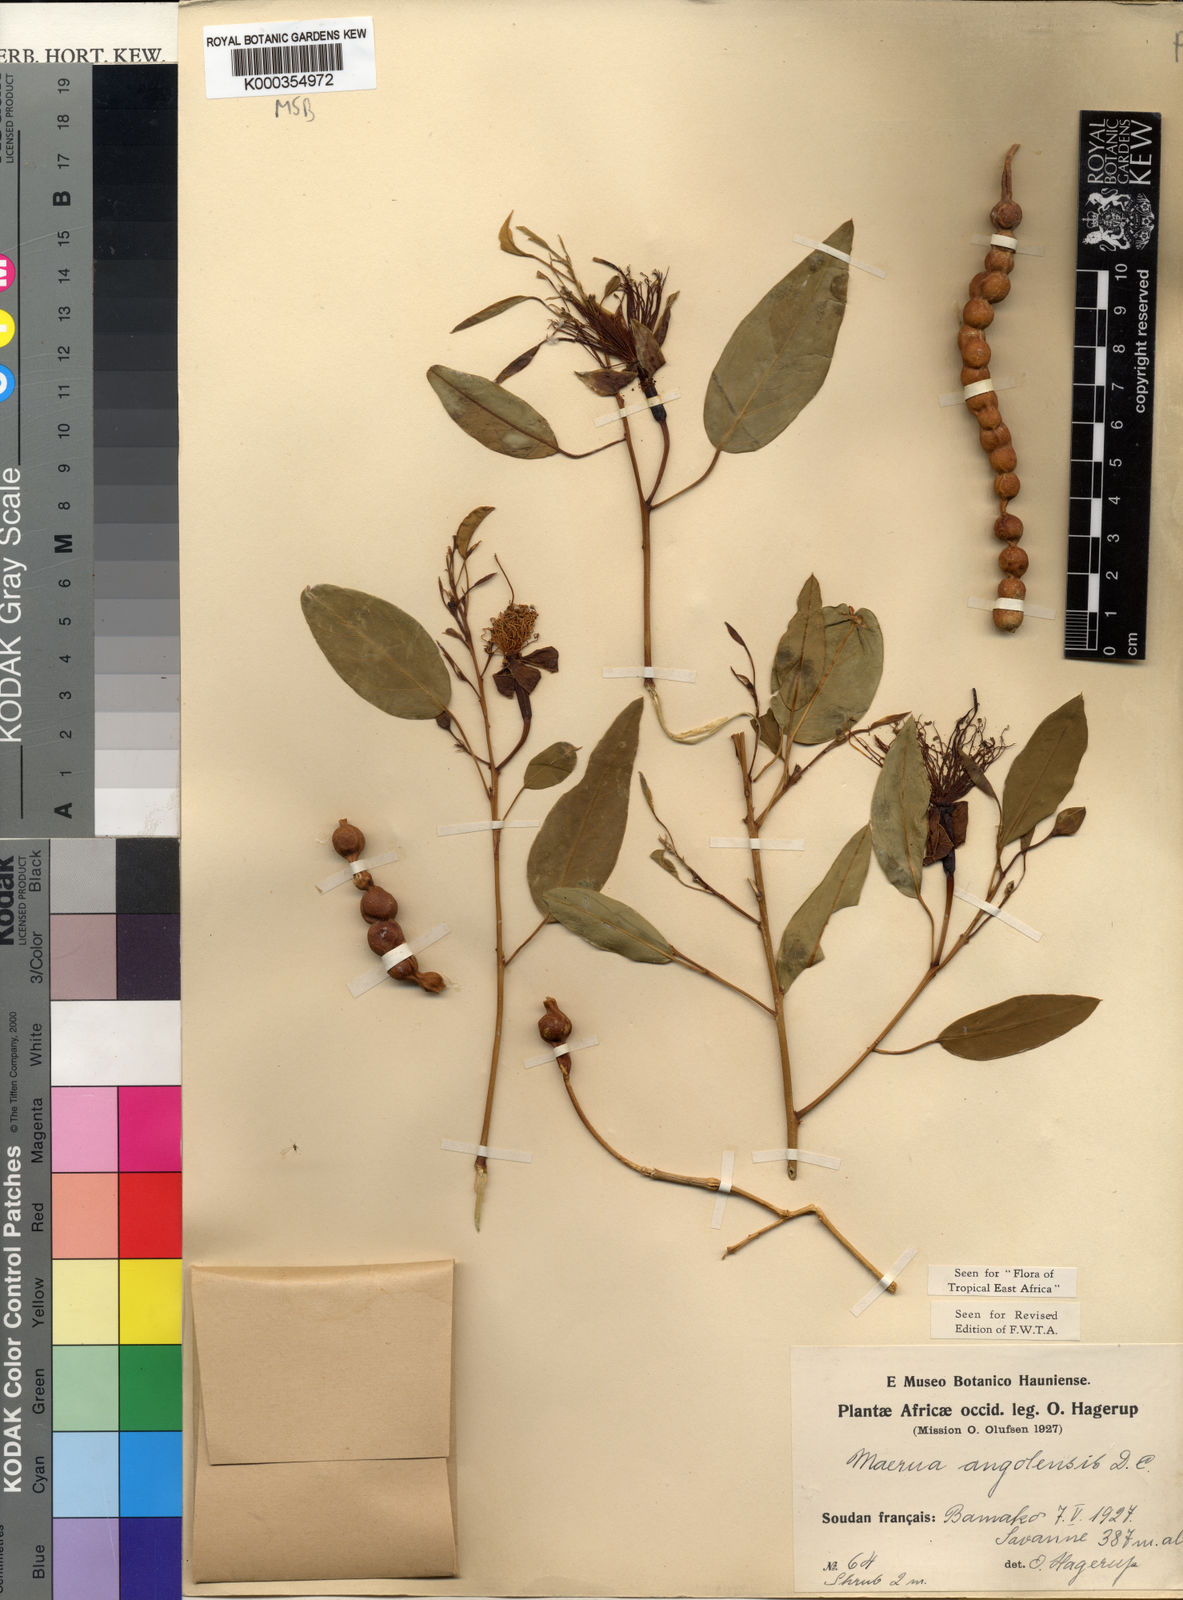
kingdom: Plantae
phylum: Tracheophyta
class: Magnoliopsida
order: Brassicales
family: Capparaceae
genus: Maerua
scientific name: Maerua angolensis
